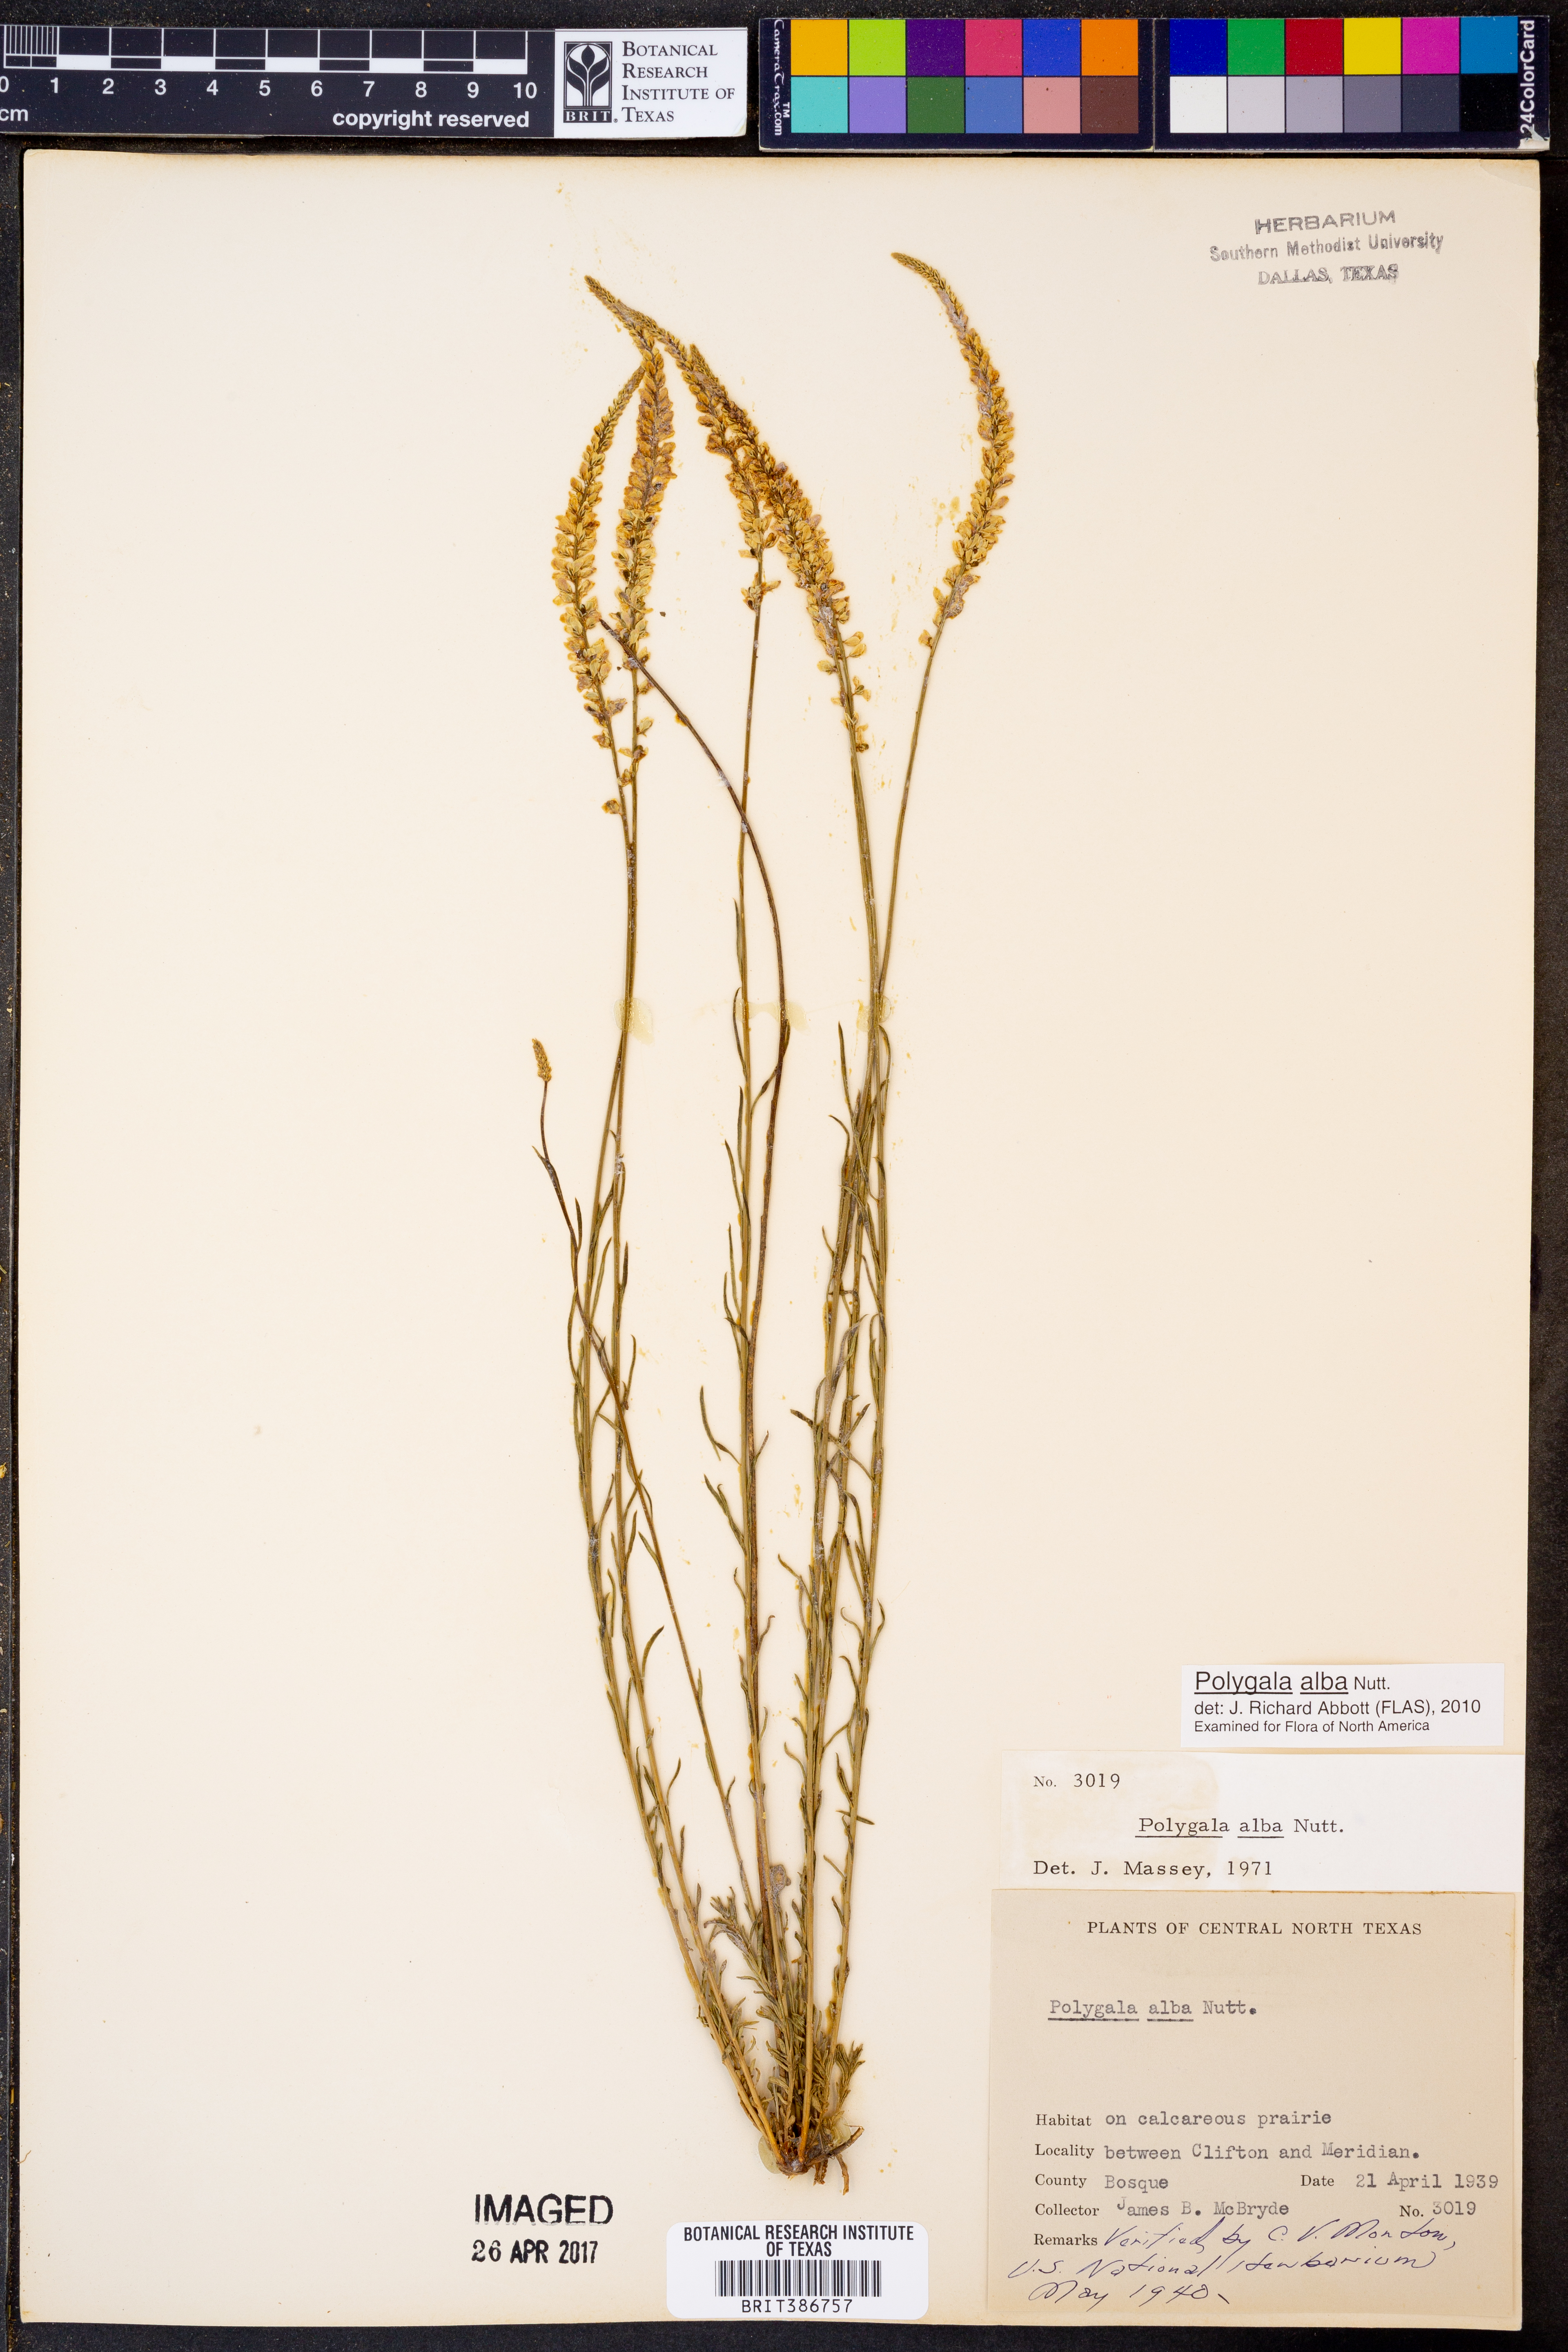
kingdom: Plantae
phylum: Tracheophyta
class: Magnoliopsida
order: Fabales
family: Polygalaceae
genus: Polygala
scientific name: Polygala alba
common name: White milkwort
